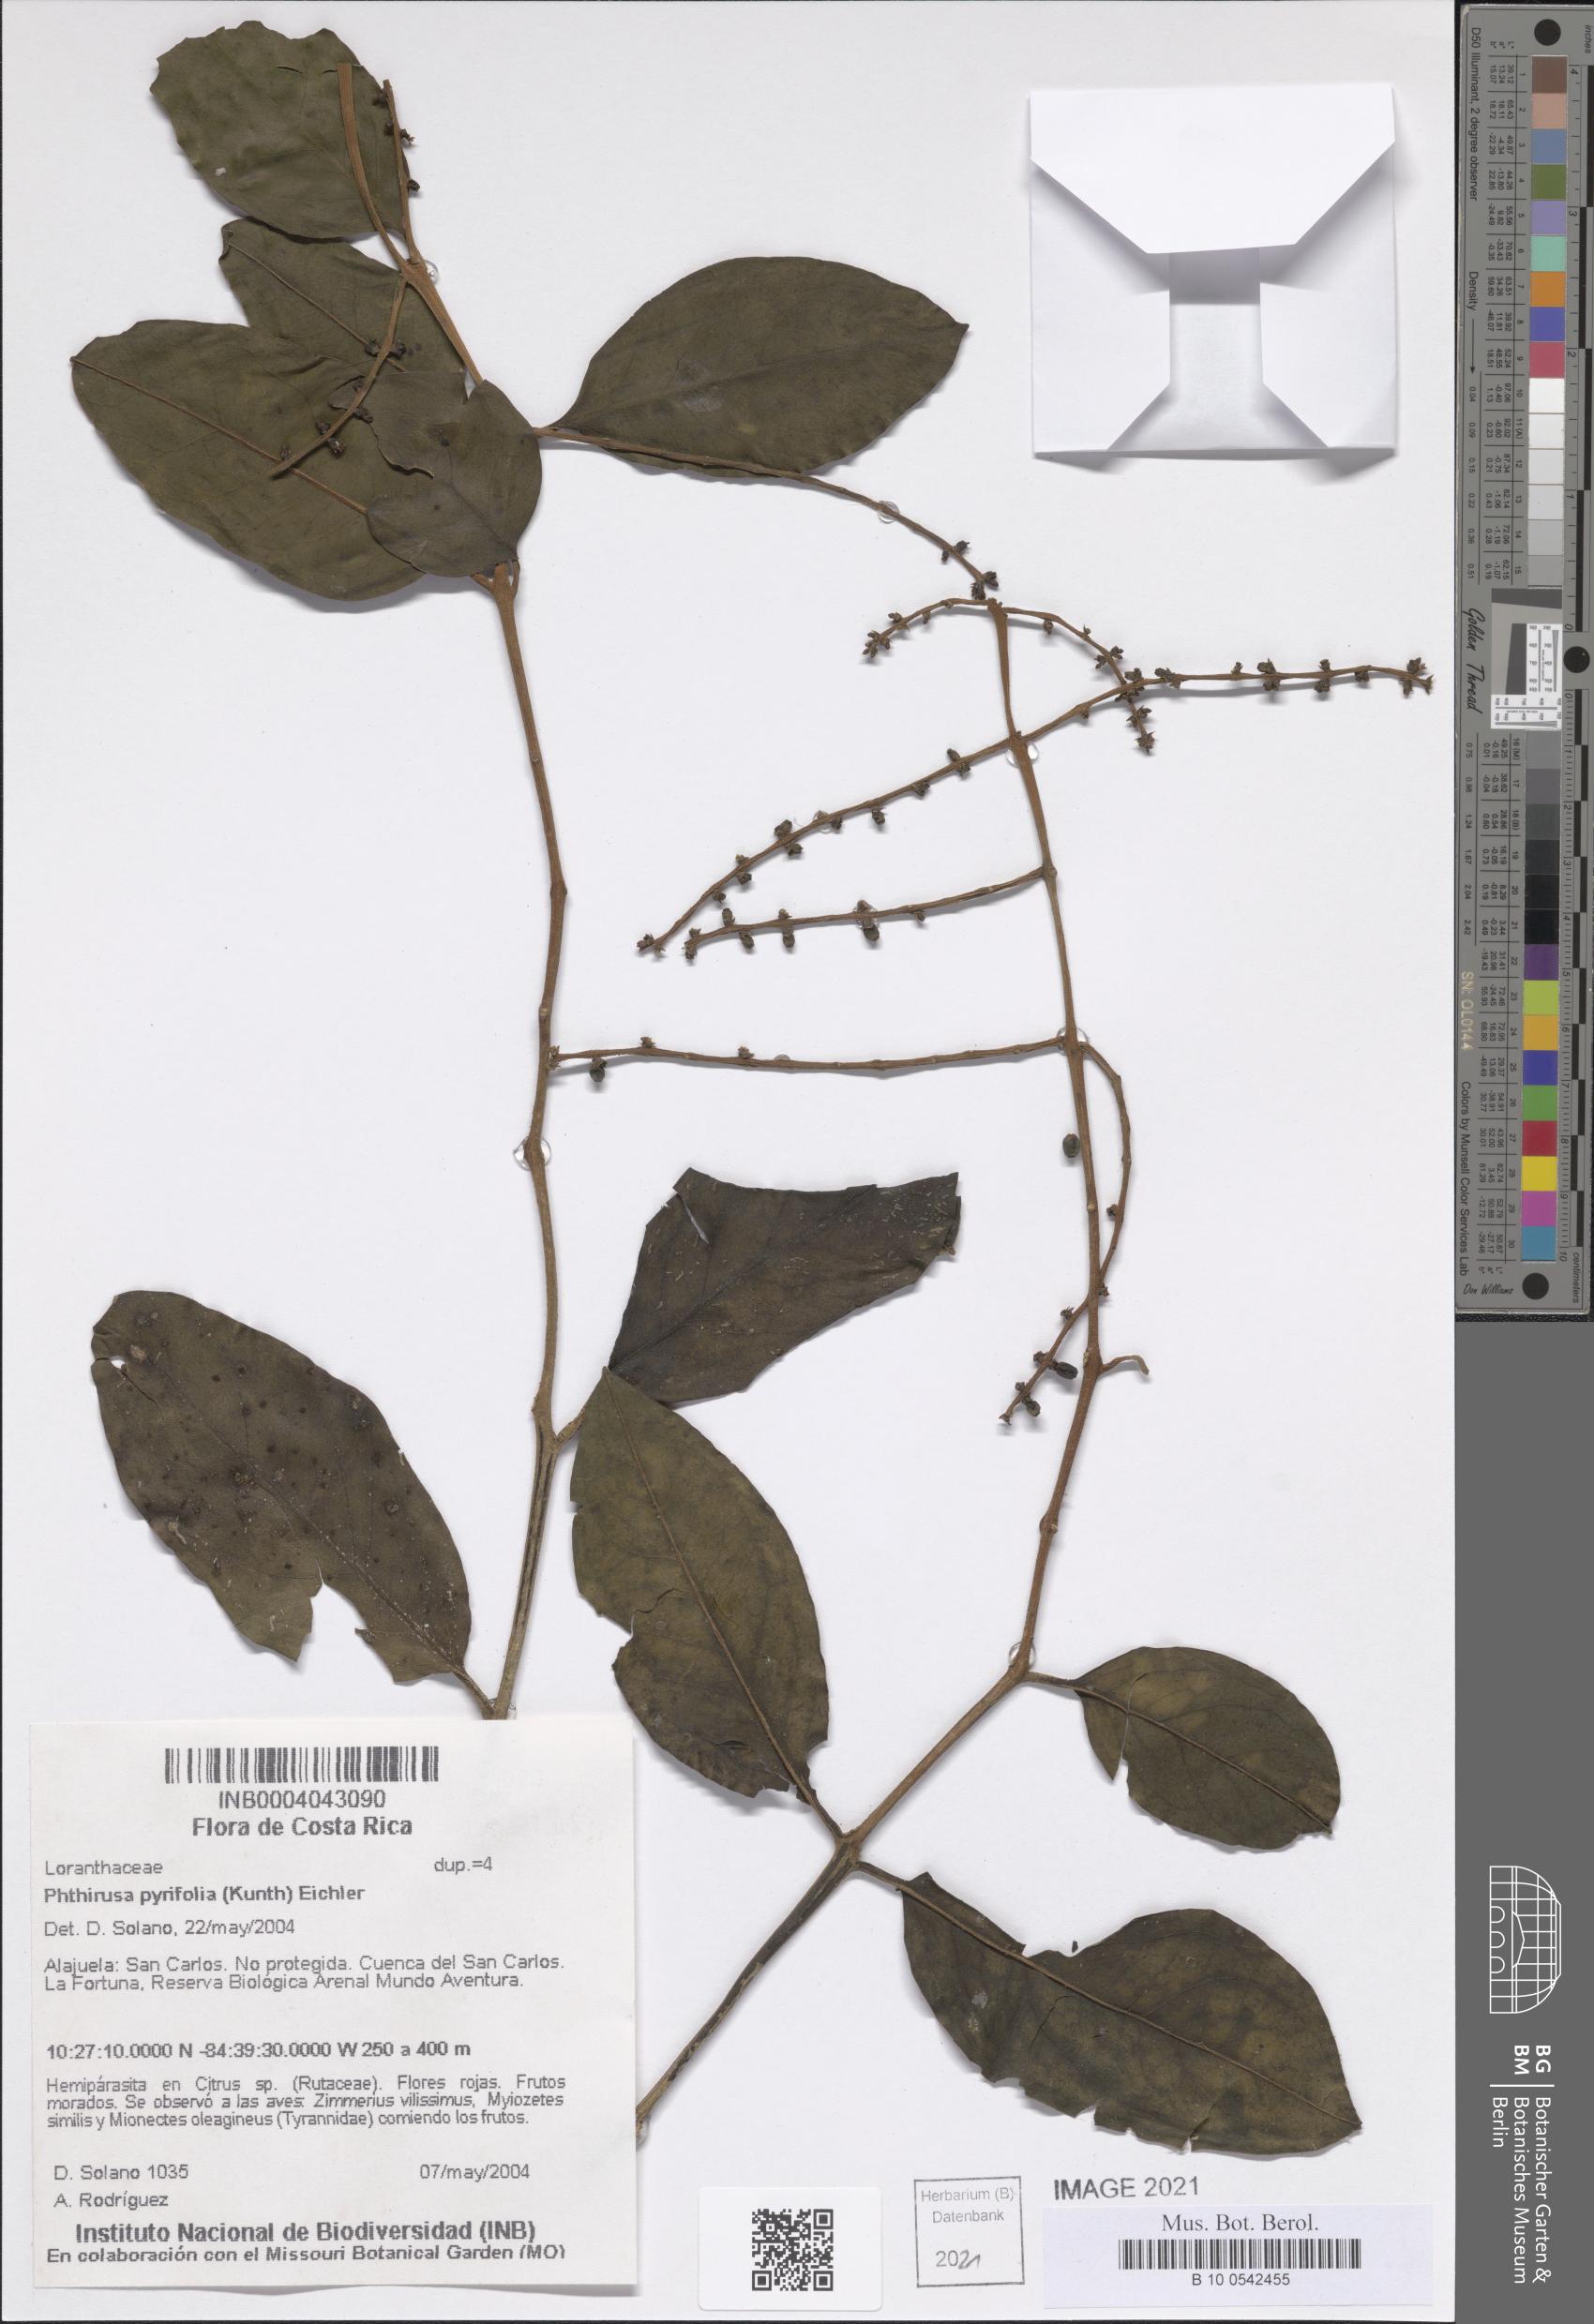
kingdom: Plantae
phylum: Tracheophyta
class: Magnoliopsida
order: Santalales
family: Loranthaceae
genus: Passovia
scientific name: Passovia pyrifolia
